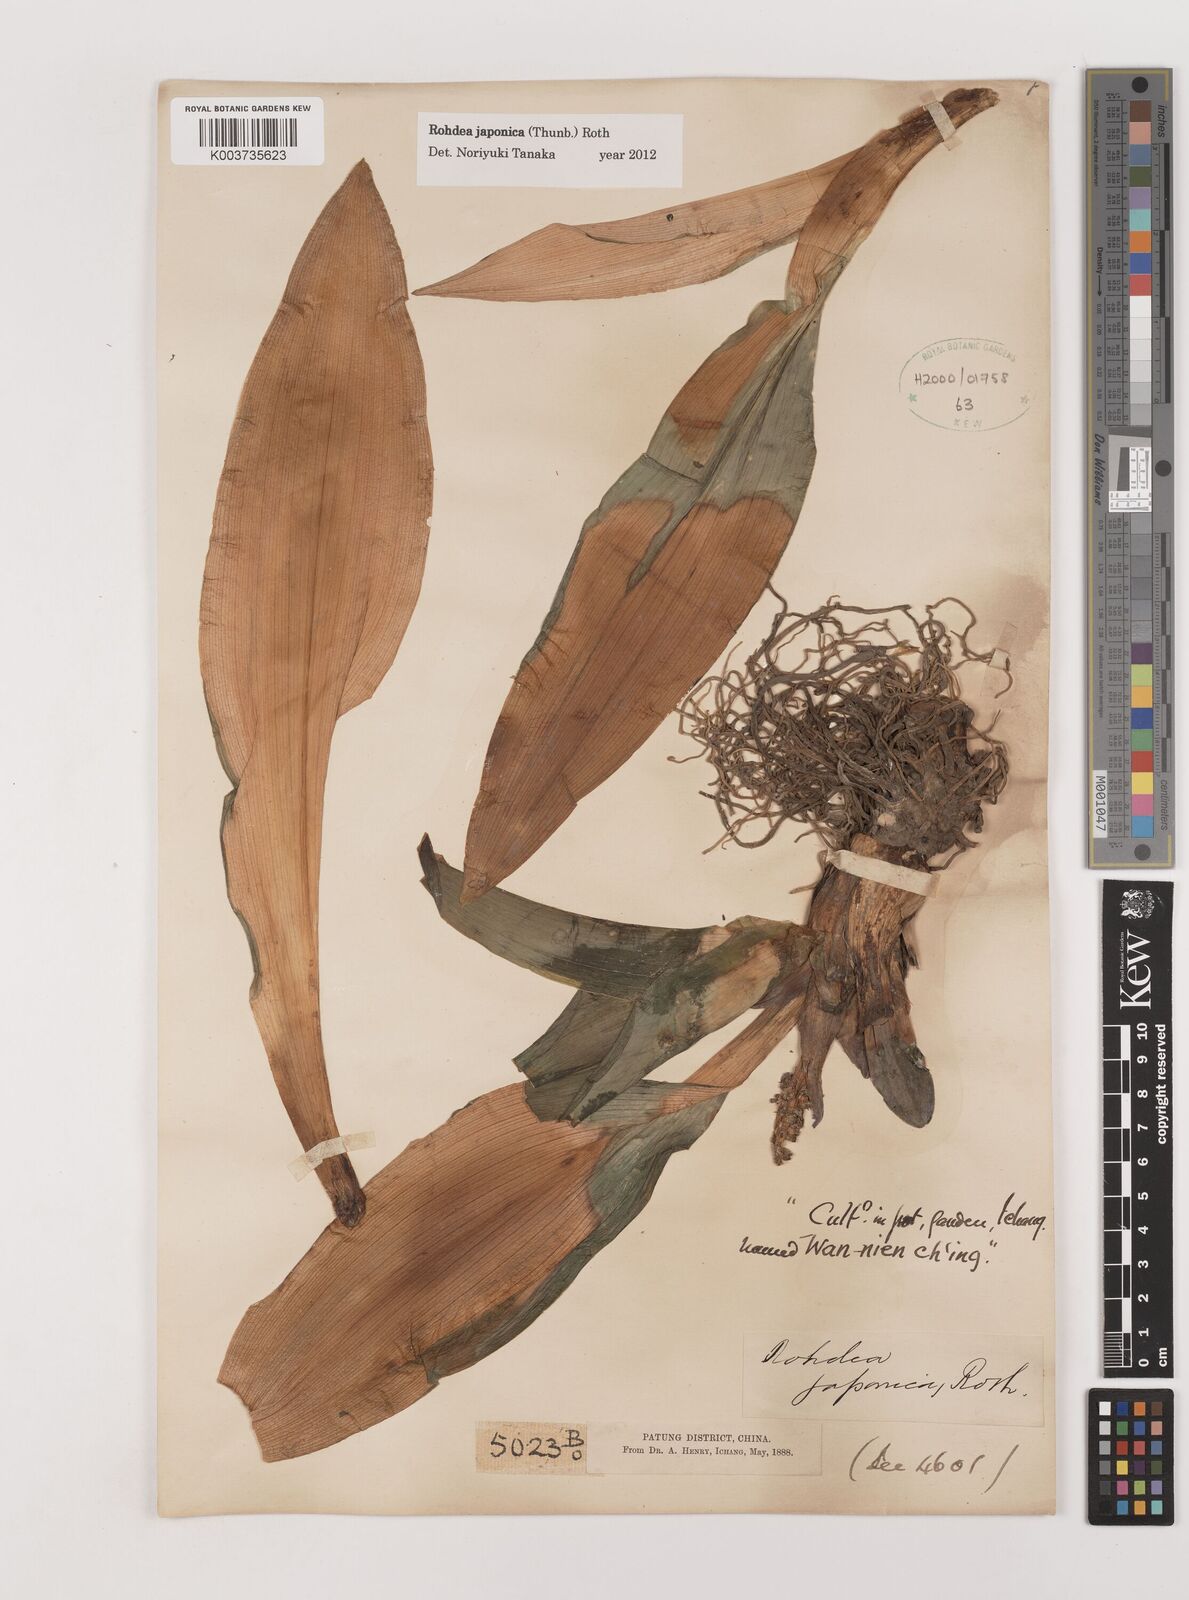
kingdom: Plantae
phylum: Tracheophyta
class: Liliopsida
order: Asparagales
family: Asparagaceae
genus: Rohdea
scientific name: Rohdea japonica
